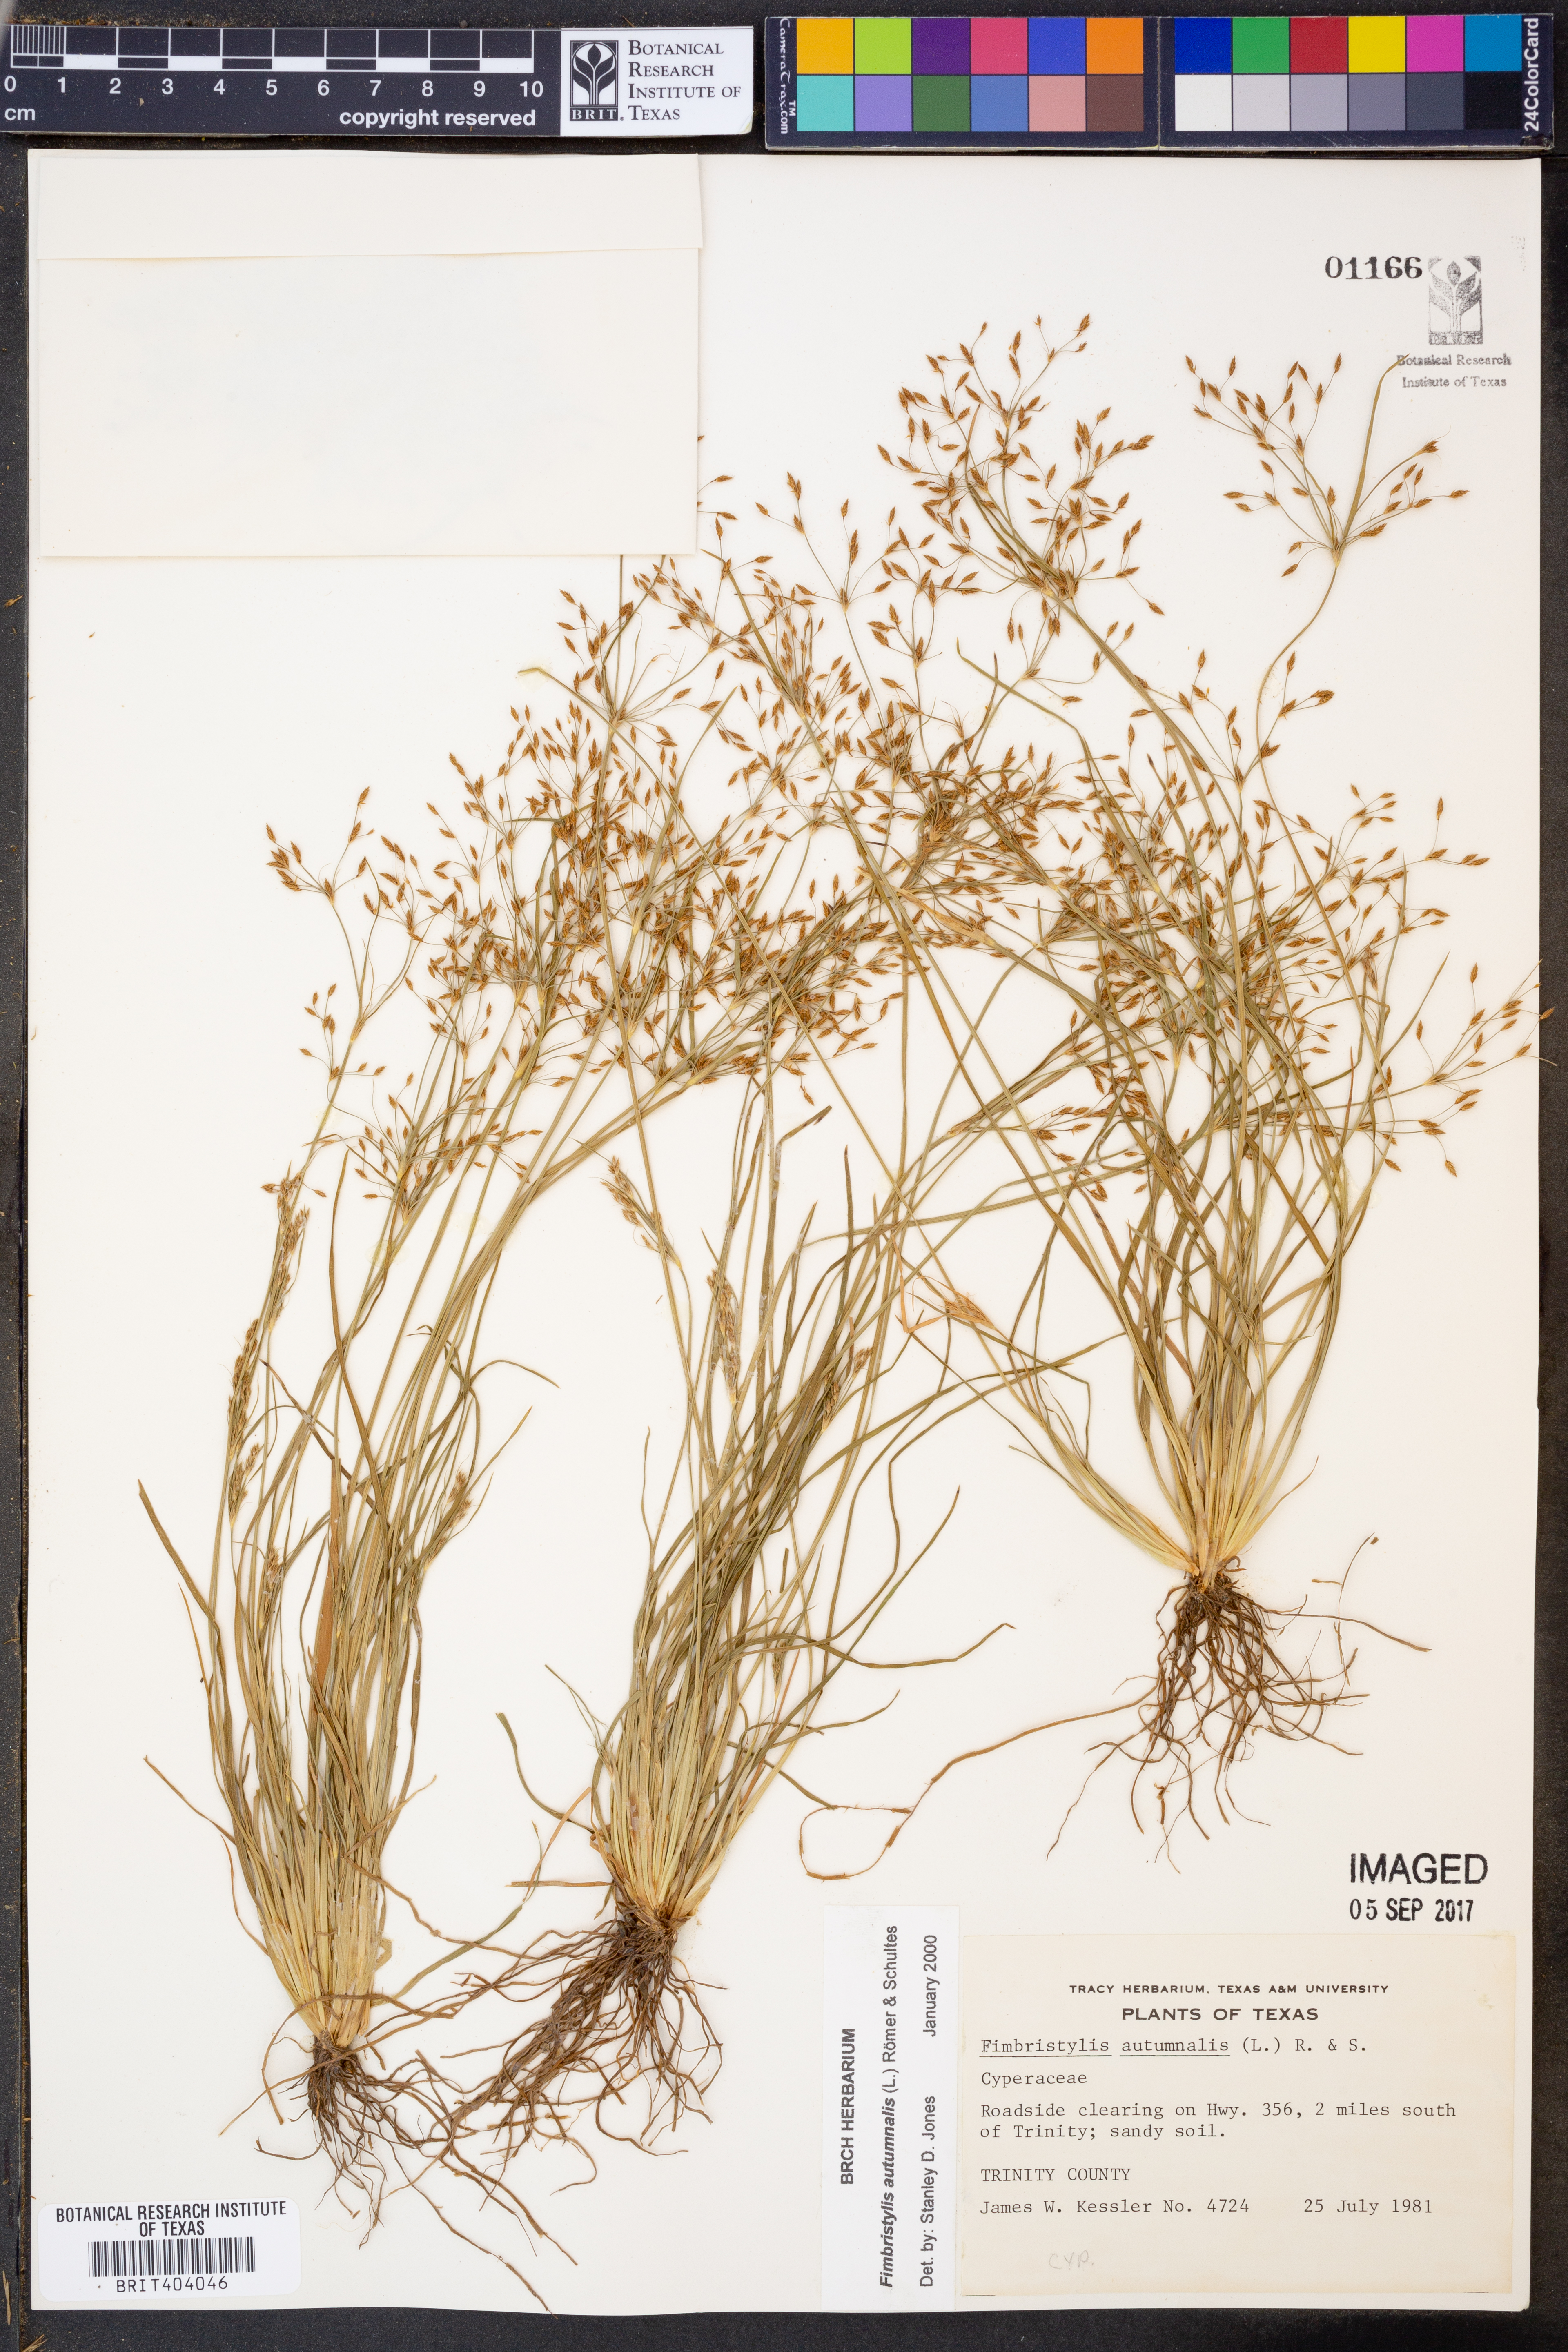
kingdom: Plantae
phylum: Tracheophyta
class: Liliopsida
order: Poales
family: Cyperaceae
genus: Fimbristylis
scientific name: Fimbristylis autumnalis
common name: Slender fimbristylis
